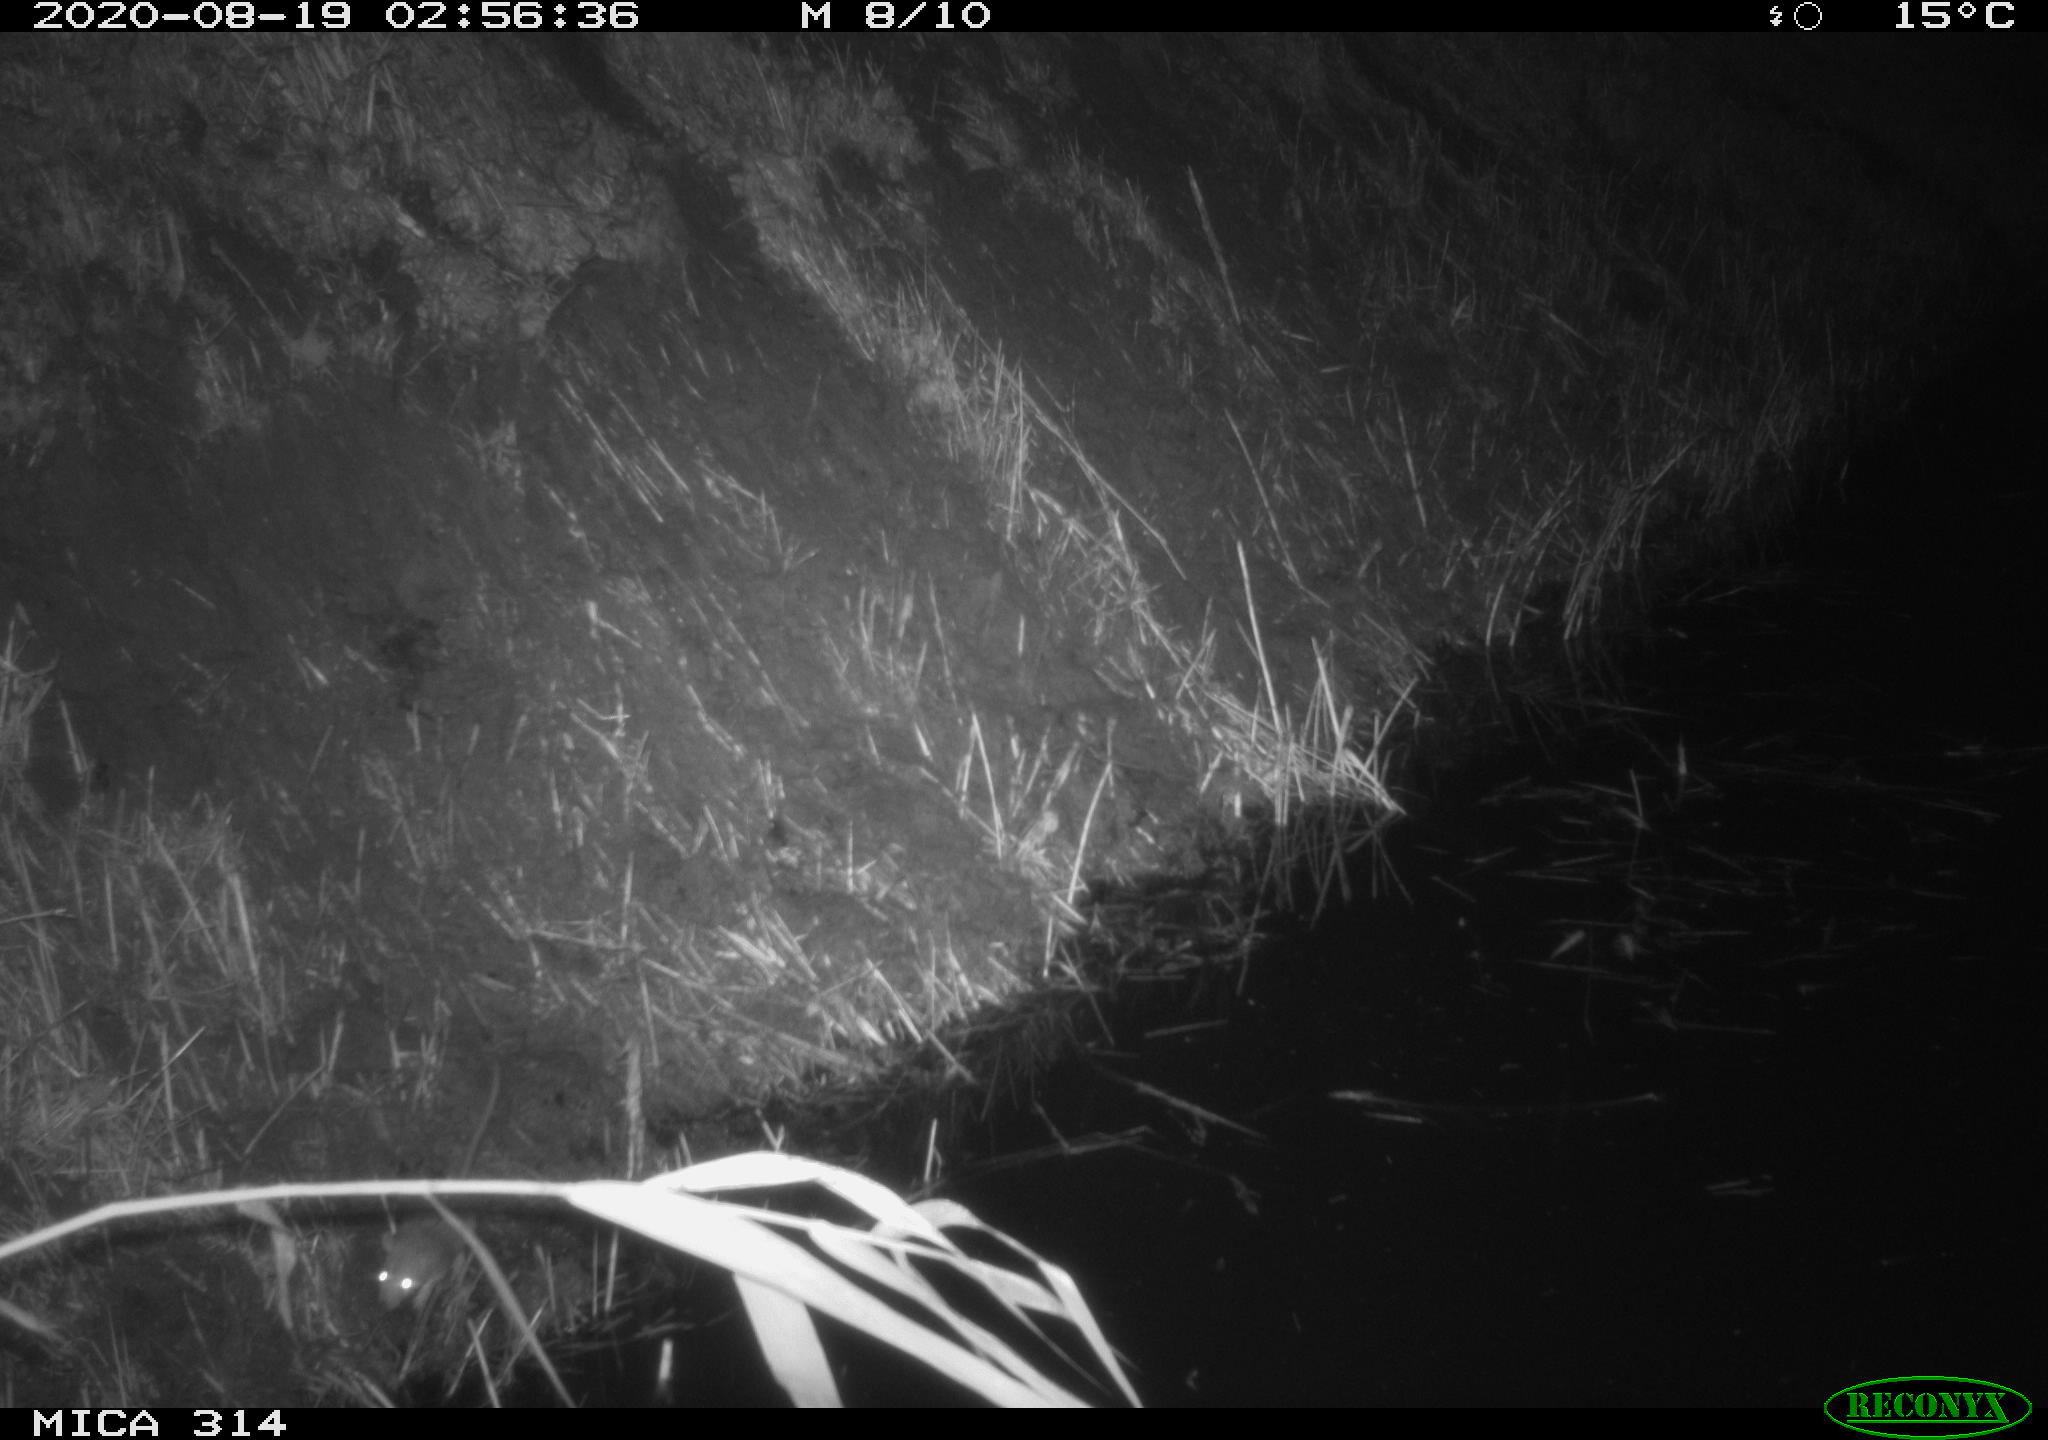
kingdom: Animalia
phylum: Chordata
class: Mammalia
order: Rodentia
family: Muridae
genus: Rattus
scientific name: Rattus norvegicus
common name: Brown rat
